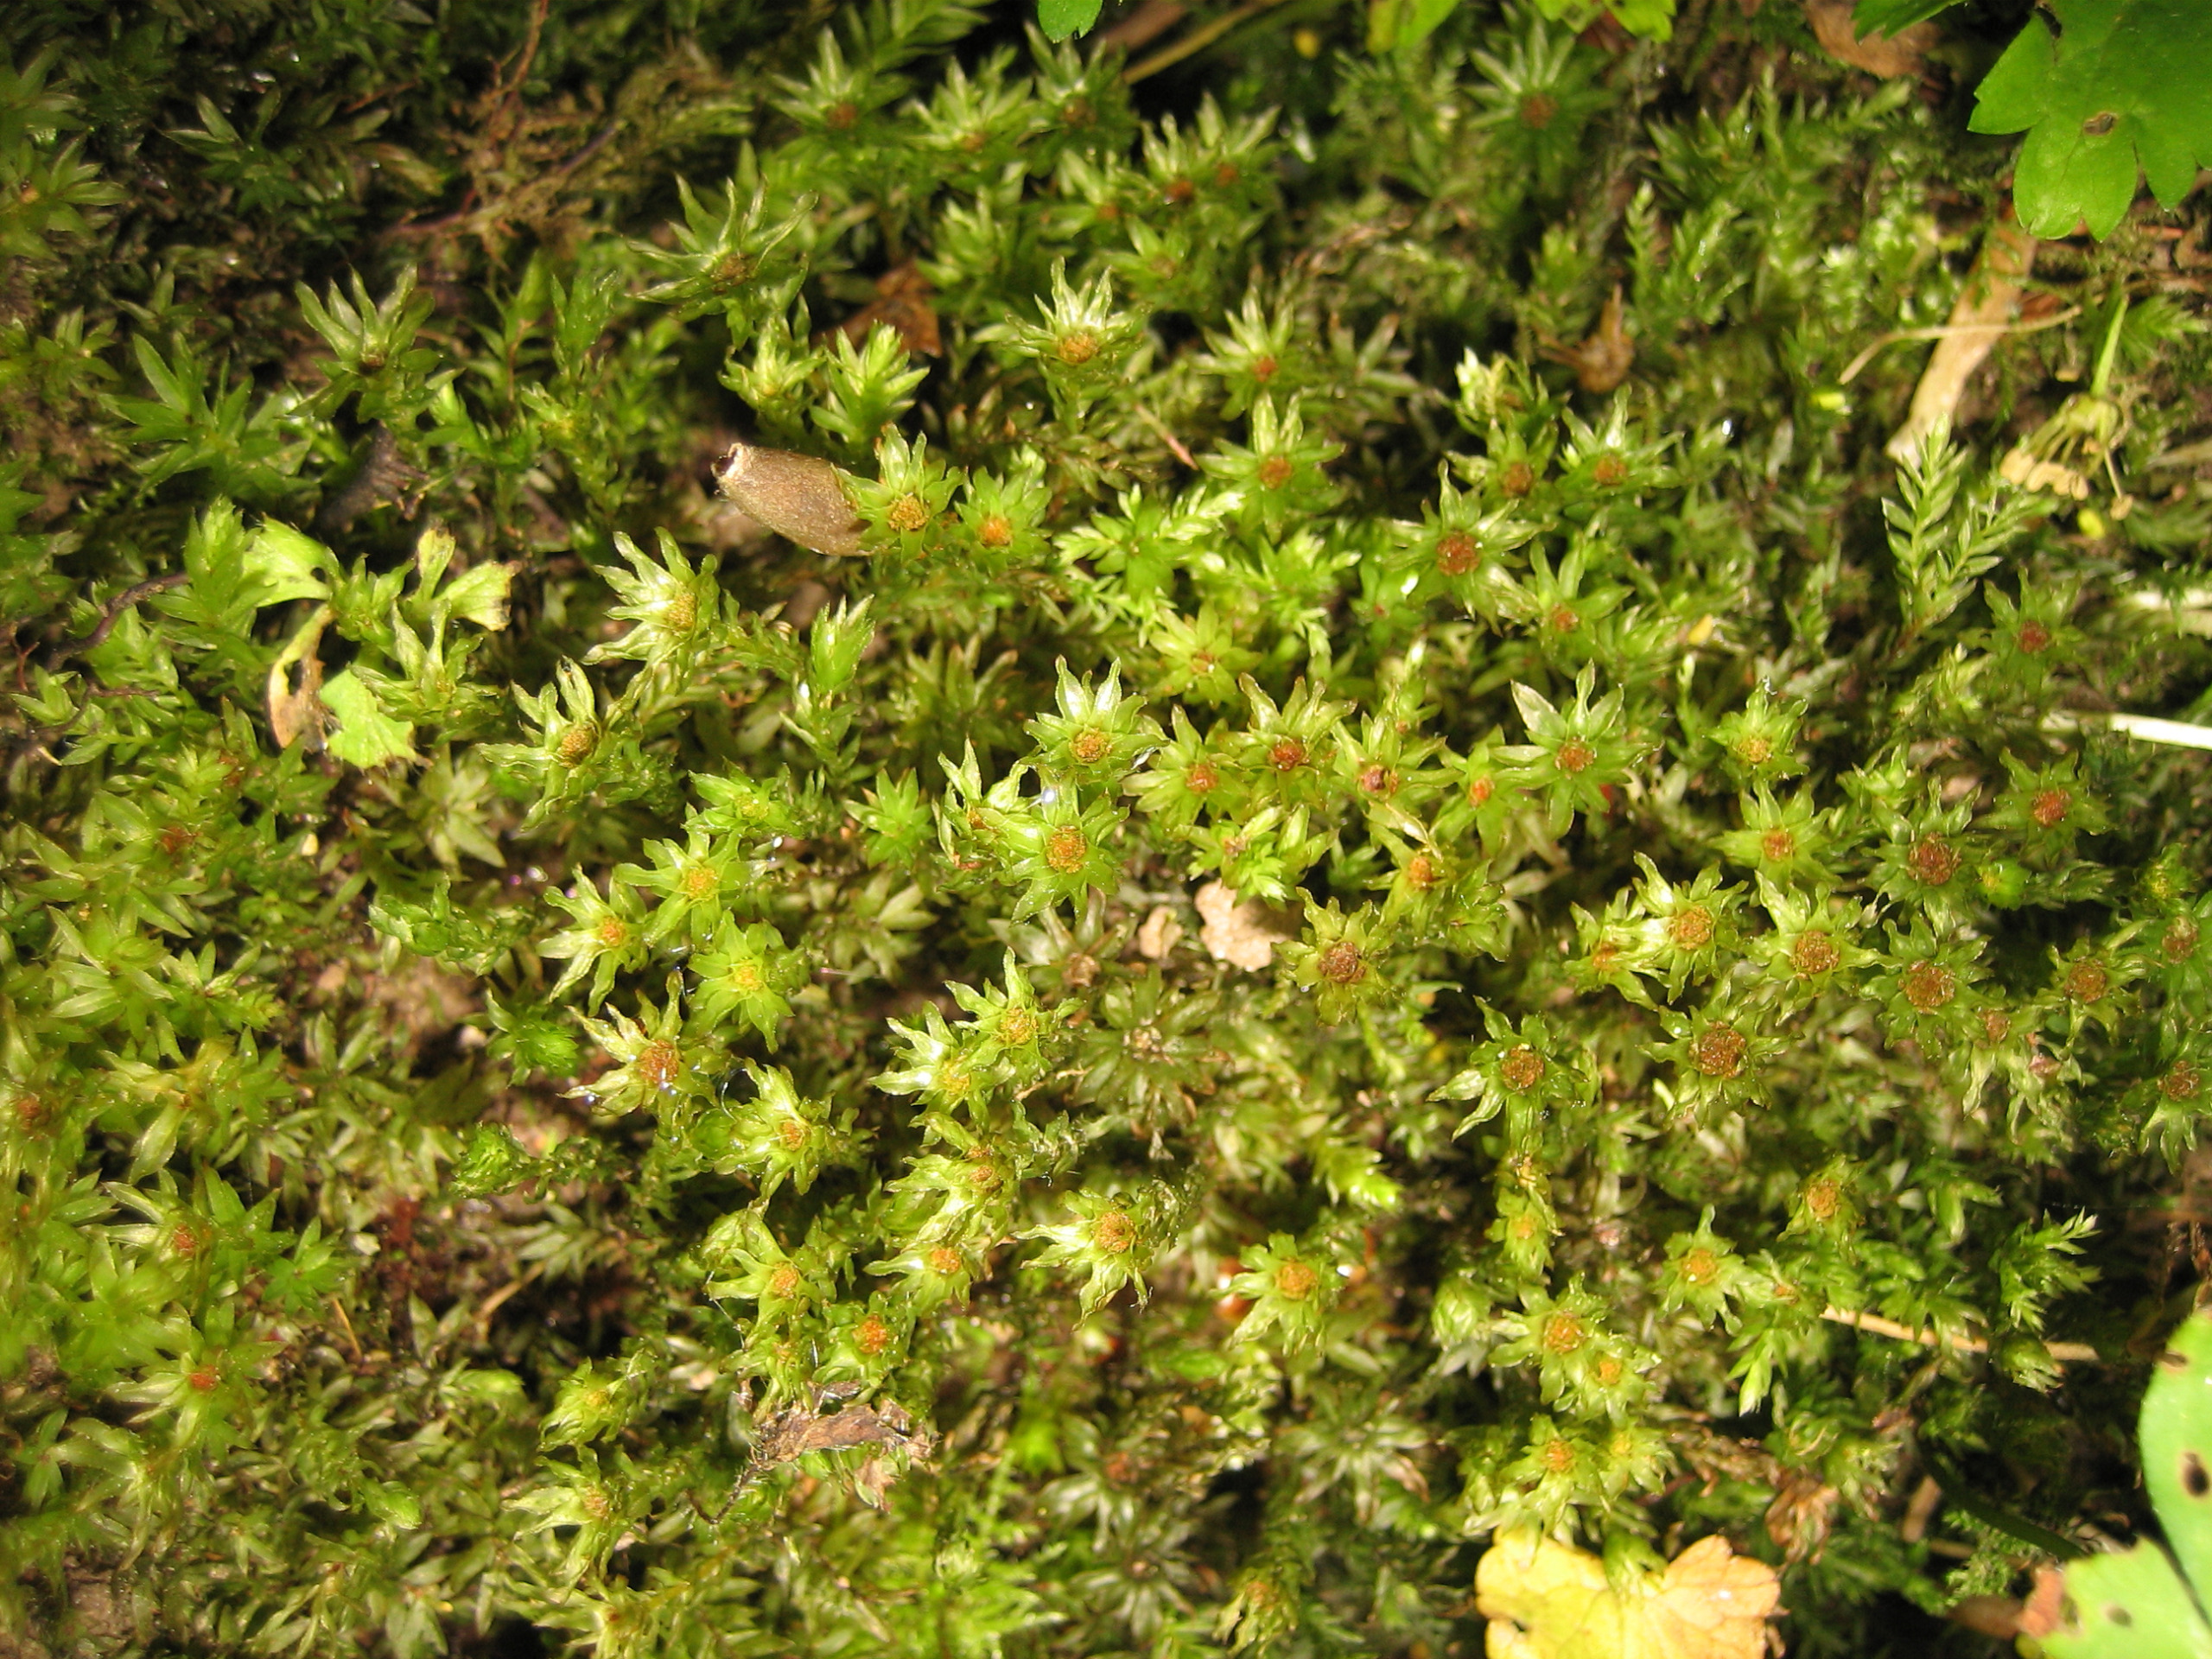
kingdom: Plantae
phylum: Bryophyta
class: Bryopsida
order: Bryales
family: Mniaceae
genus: Mnium
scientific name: Mnium hornum
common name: Brunfiltet stjernemos
